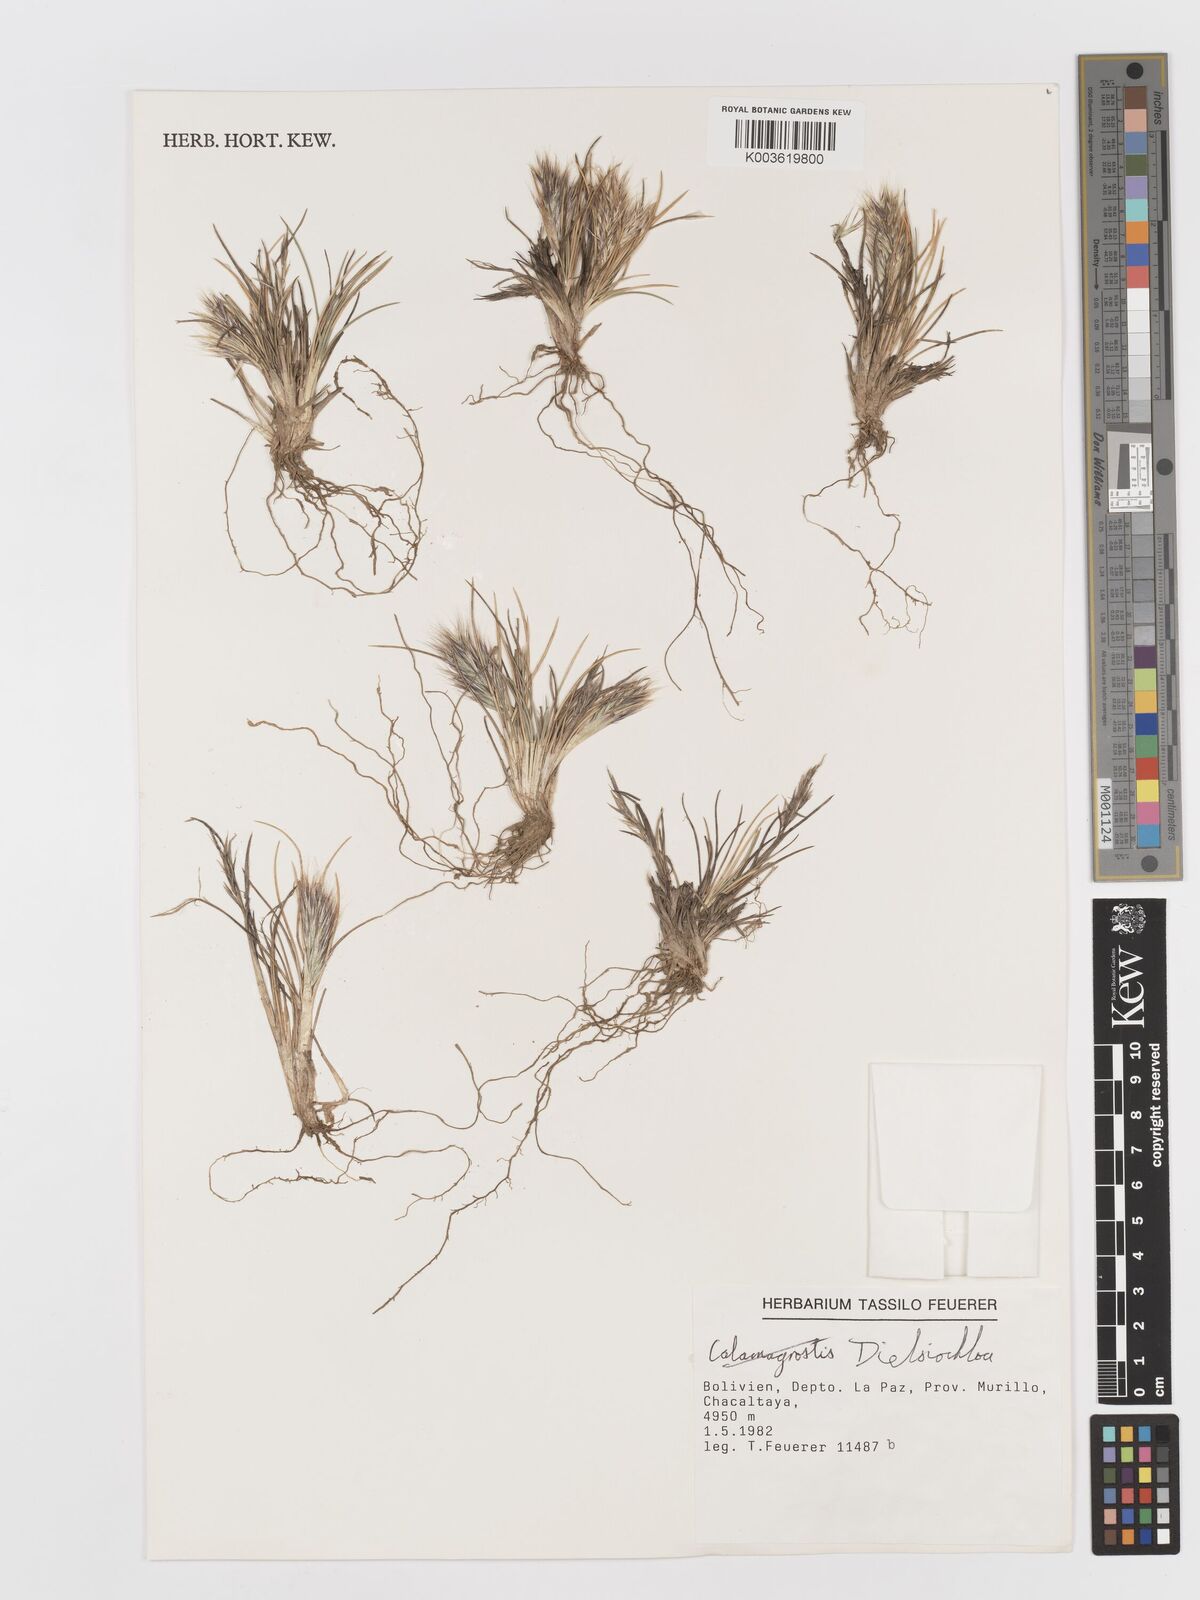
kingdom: Plantae
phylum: Tracheophyta
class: Liliopsida
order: Poales
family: Poaceae
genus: Festuca
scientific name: Festuca floribunda
